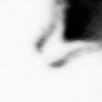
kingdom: Animalia
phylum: Arthropoda
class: Copepoda
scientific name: Copepoda
